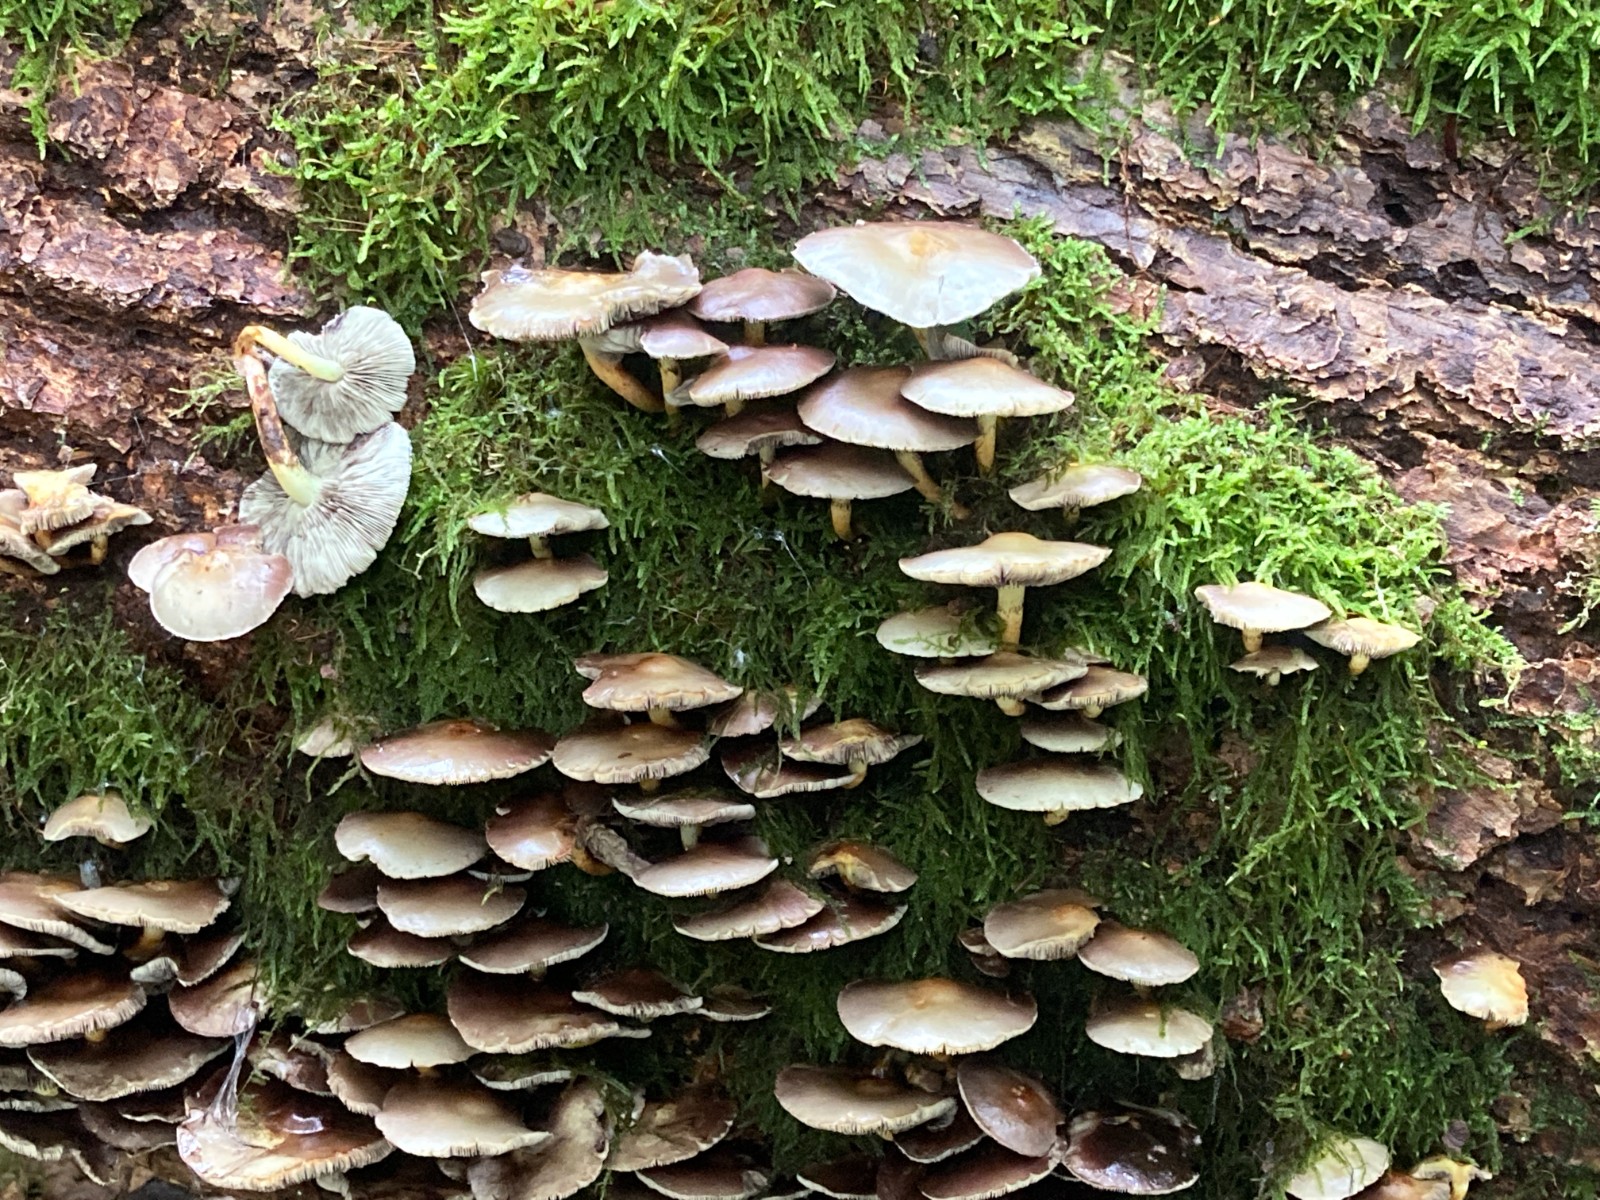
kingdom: Fungi
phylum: Basidiomycota
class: Agaricomycetes
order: Agaricales
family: Strophariaceae
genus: Hypholoma
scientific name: Hypholoma fasciculare
